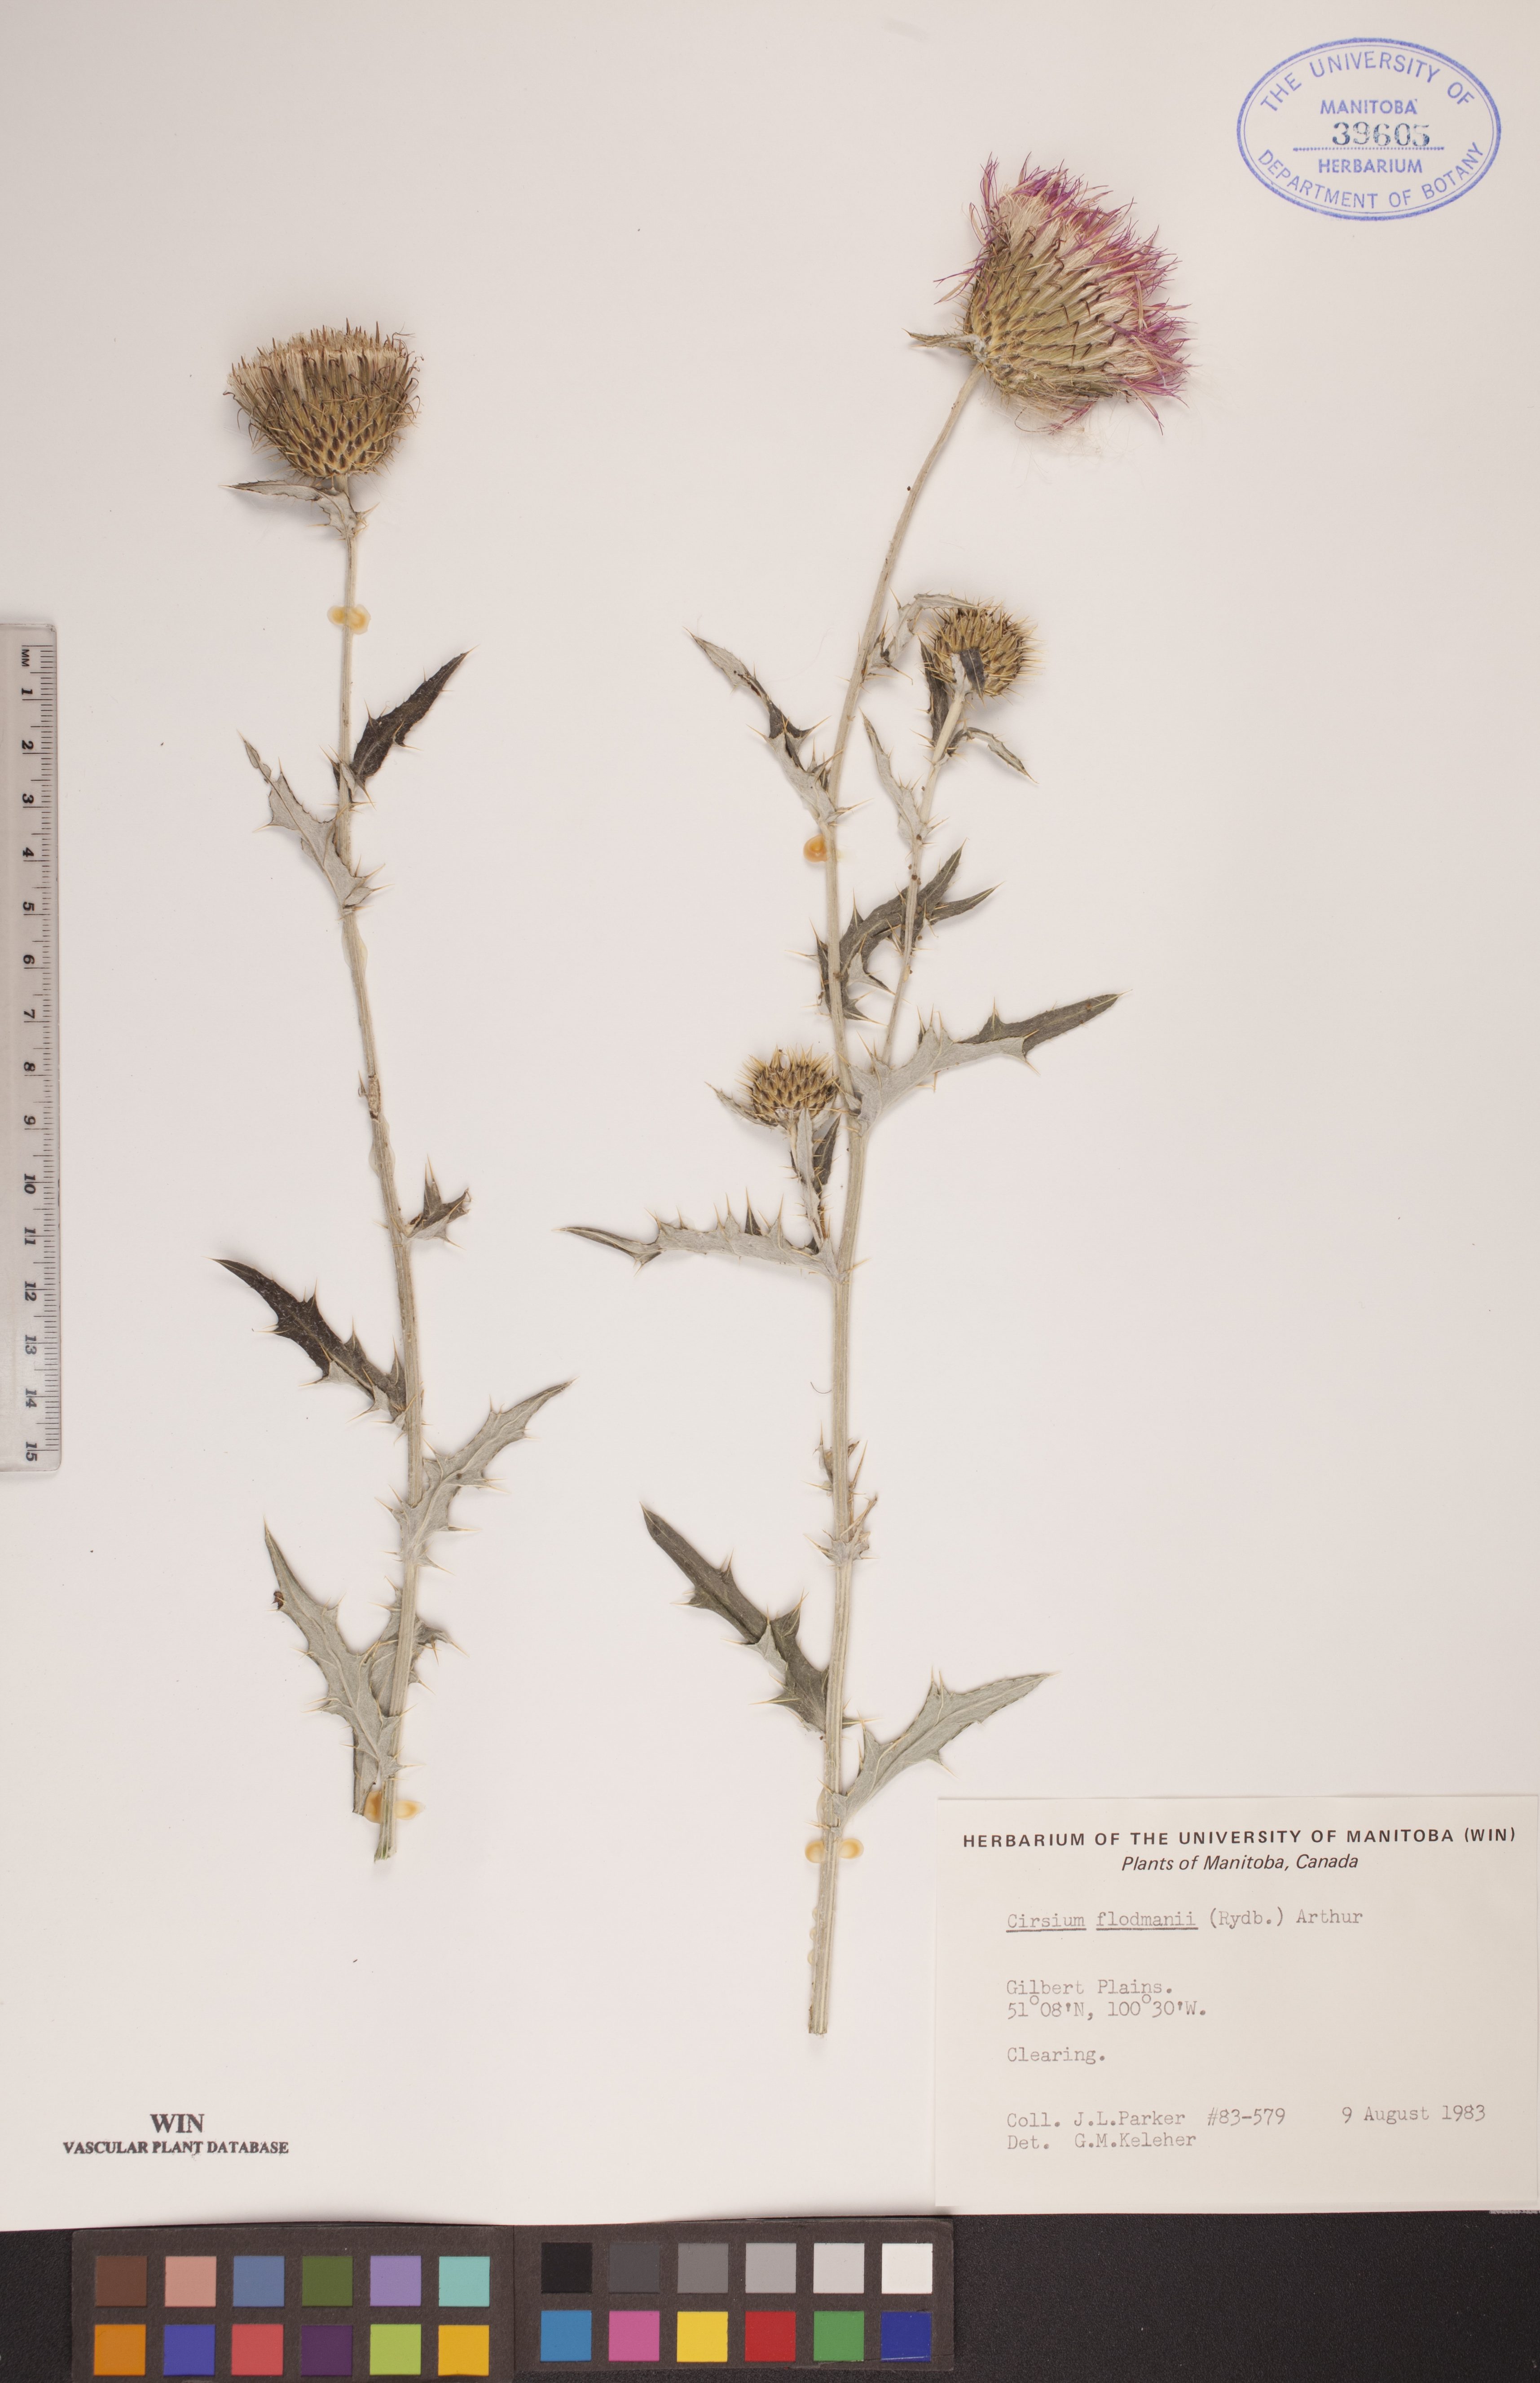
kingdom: Plantae
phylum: Tracheophyta
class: Magnoliopsida
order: Asterales
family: Asteraceae
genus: Cirsium
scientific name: Cirsium flodmanii
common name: Flodman's thistle
